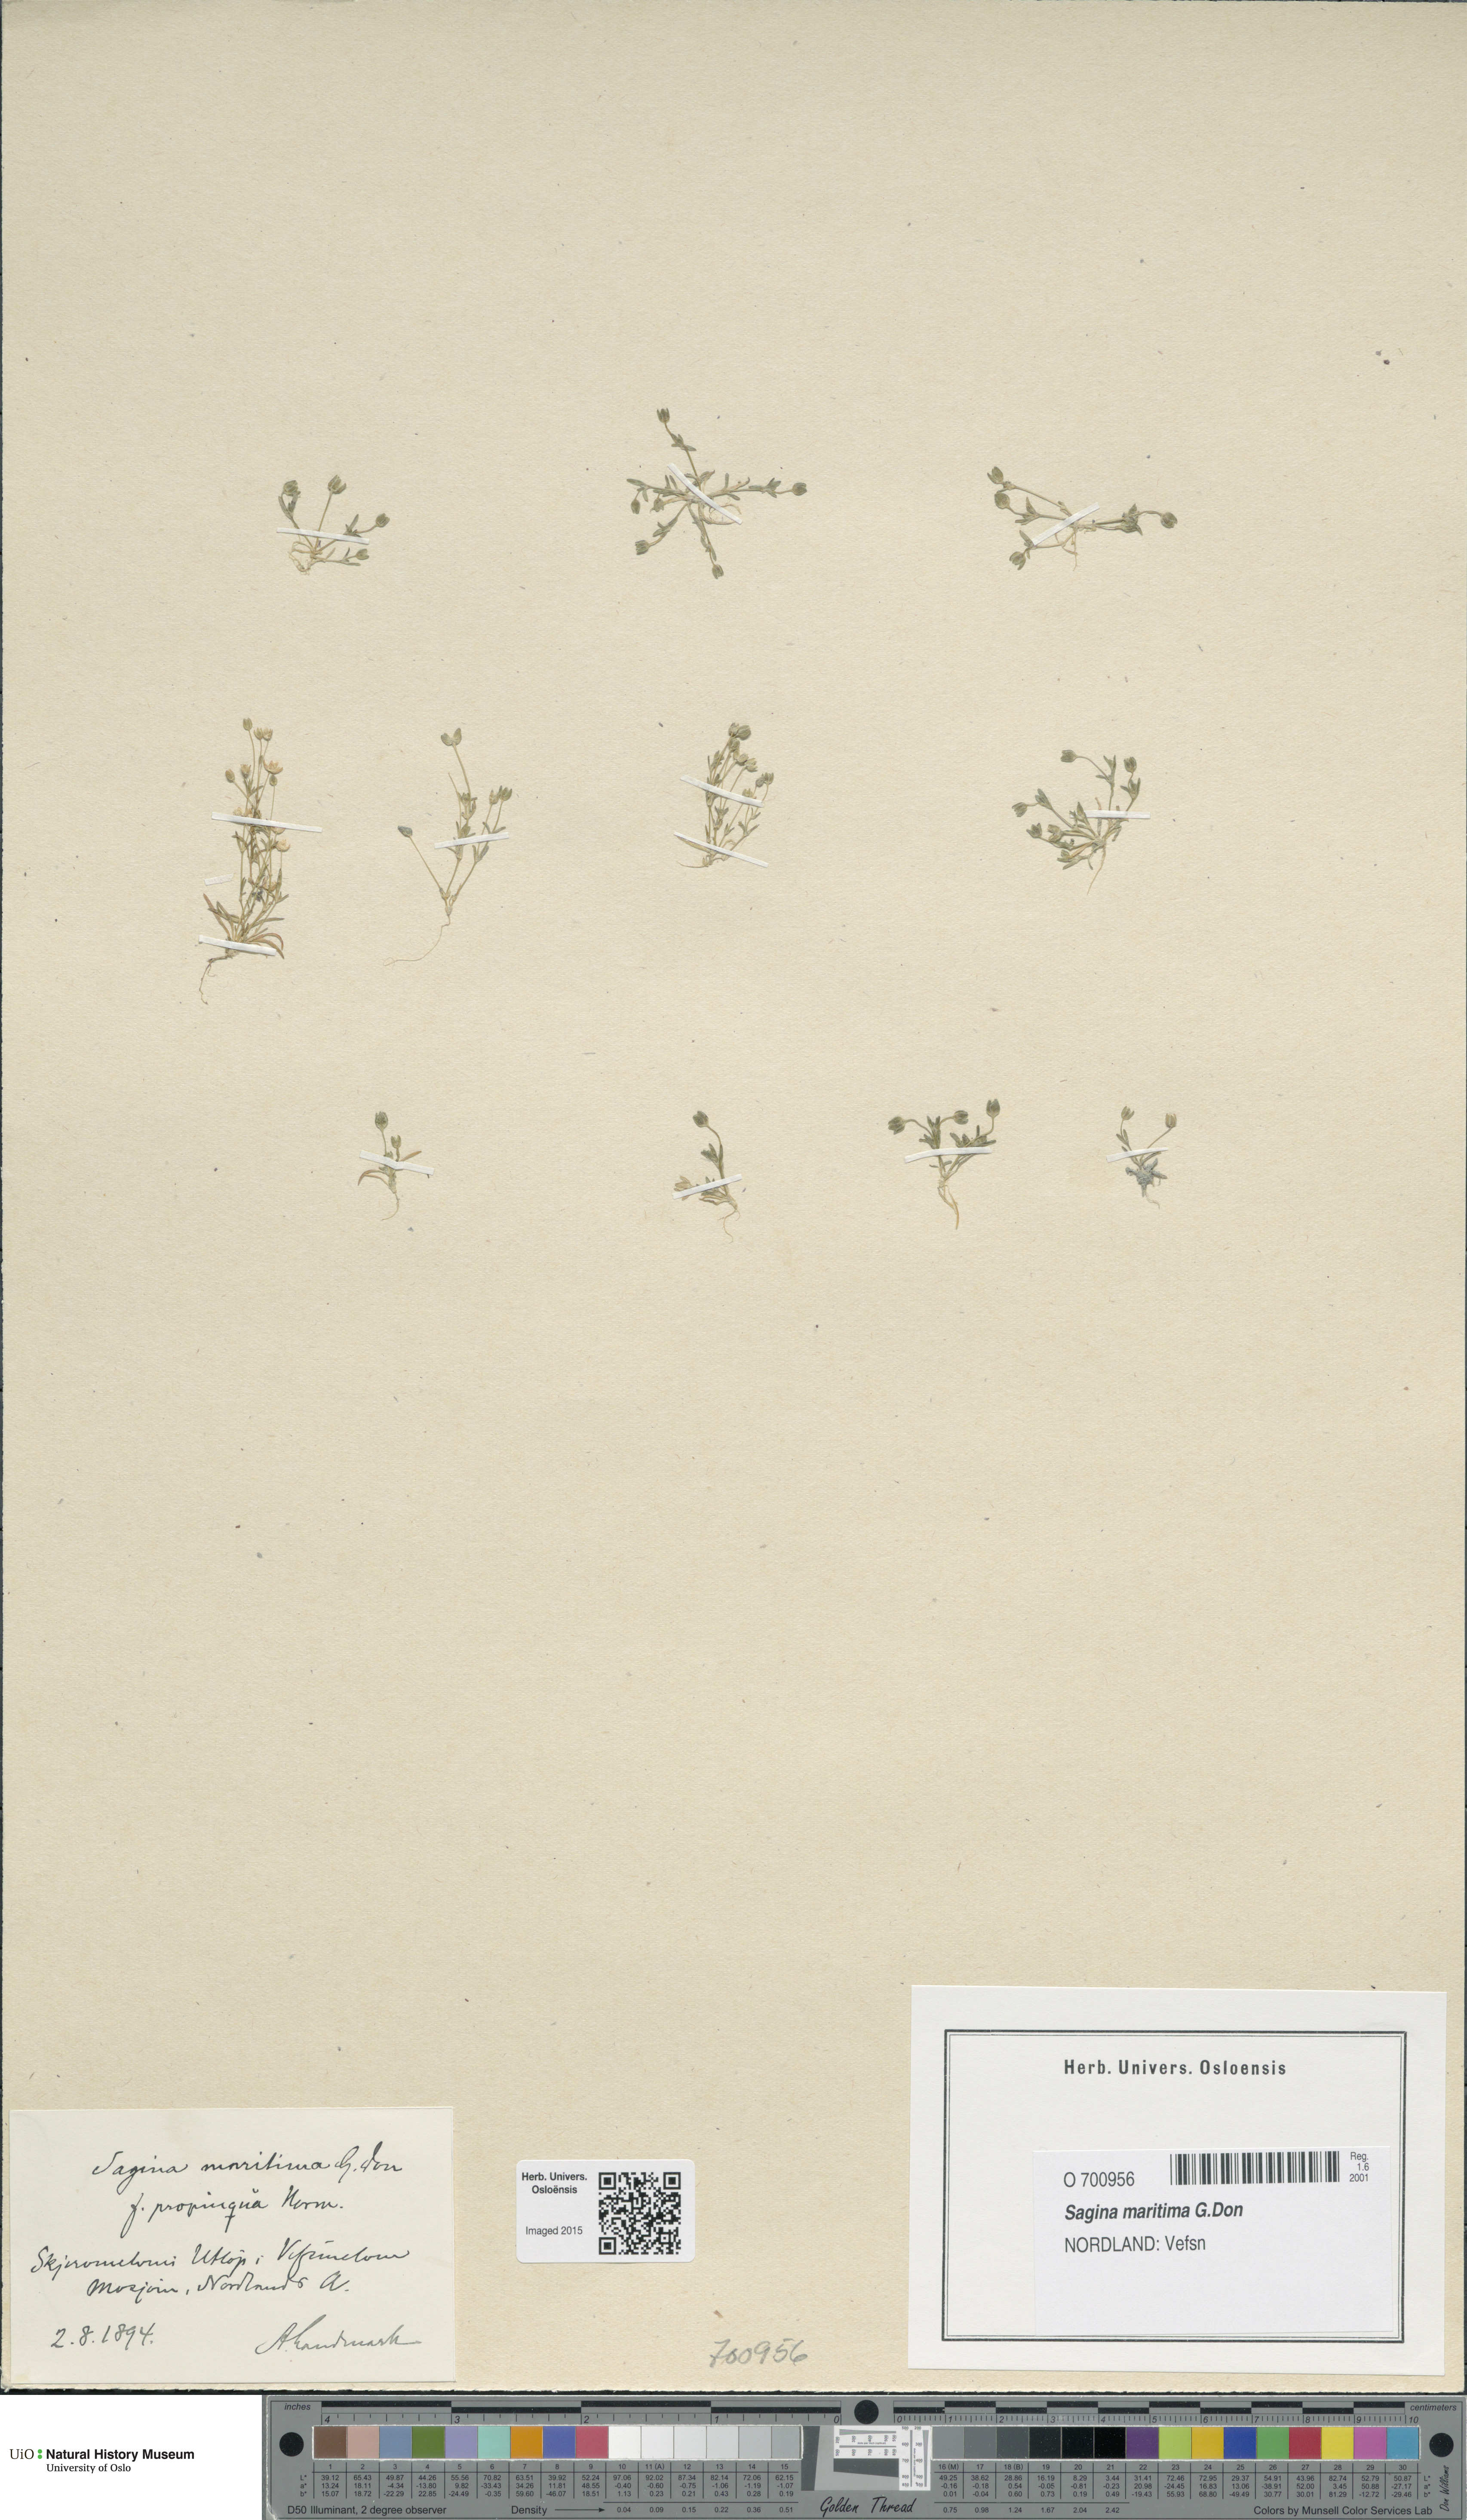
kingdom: Plantae
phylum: Tracheophyta
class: Magnoliopsida
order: Caryophyllales
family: Caryophyllaceae
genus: Sagina
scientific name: Sagina maritima
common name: Sea pearlwort
